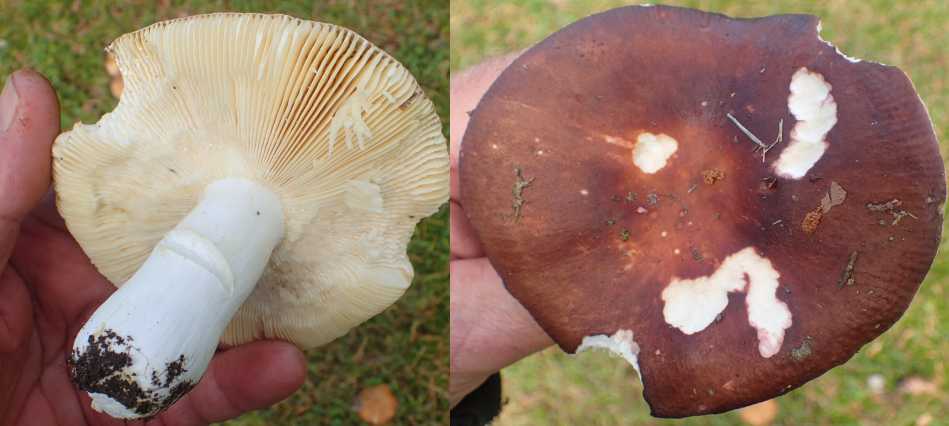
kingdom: Fungi
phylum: Basidiomycota
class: Agaricomycetes
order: Russulales
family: Russulaceae
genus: Russula
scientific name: Russula integra
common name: mandel-skørhat
